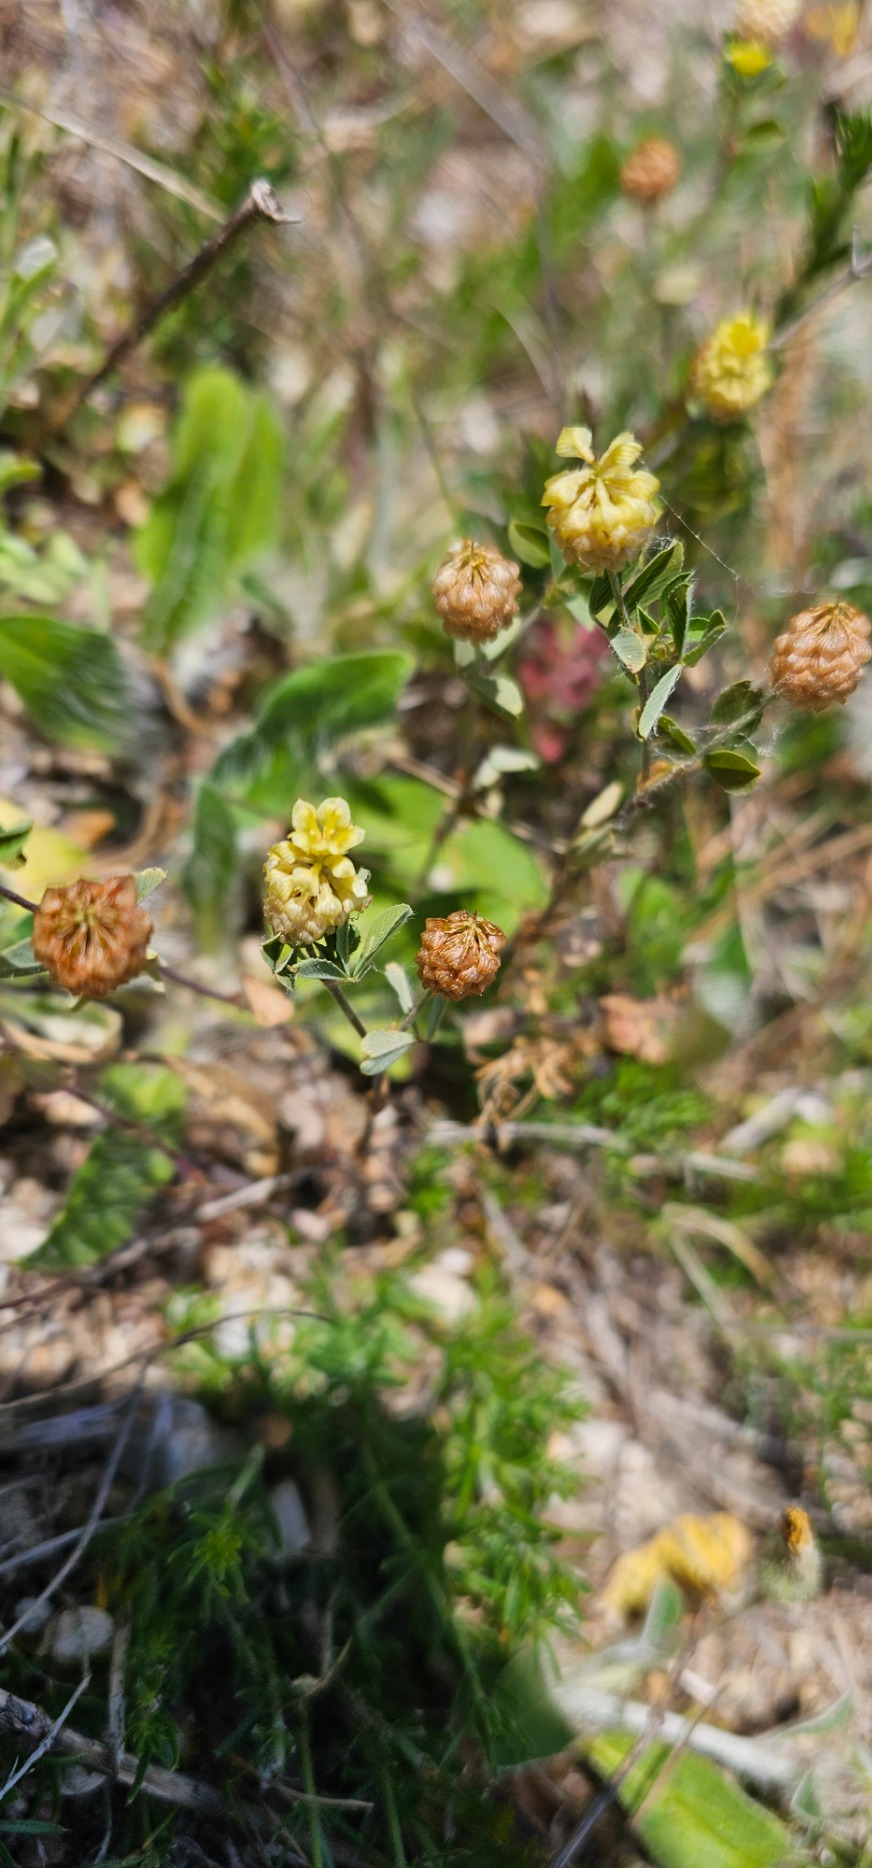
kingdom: Plantae
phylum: Tracheophyta
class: Magnoliopsida
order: Fabales
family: Fabaceae
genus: Trifolium
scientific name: Trifolium campestre
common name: Gul kløver
